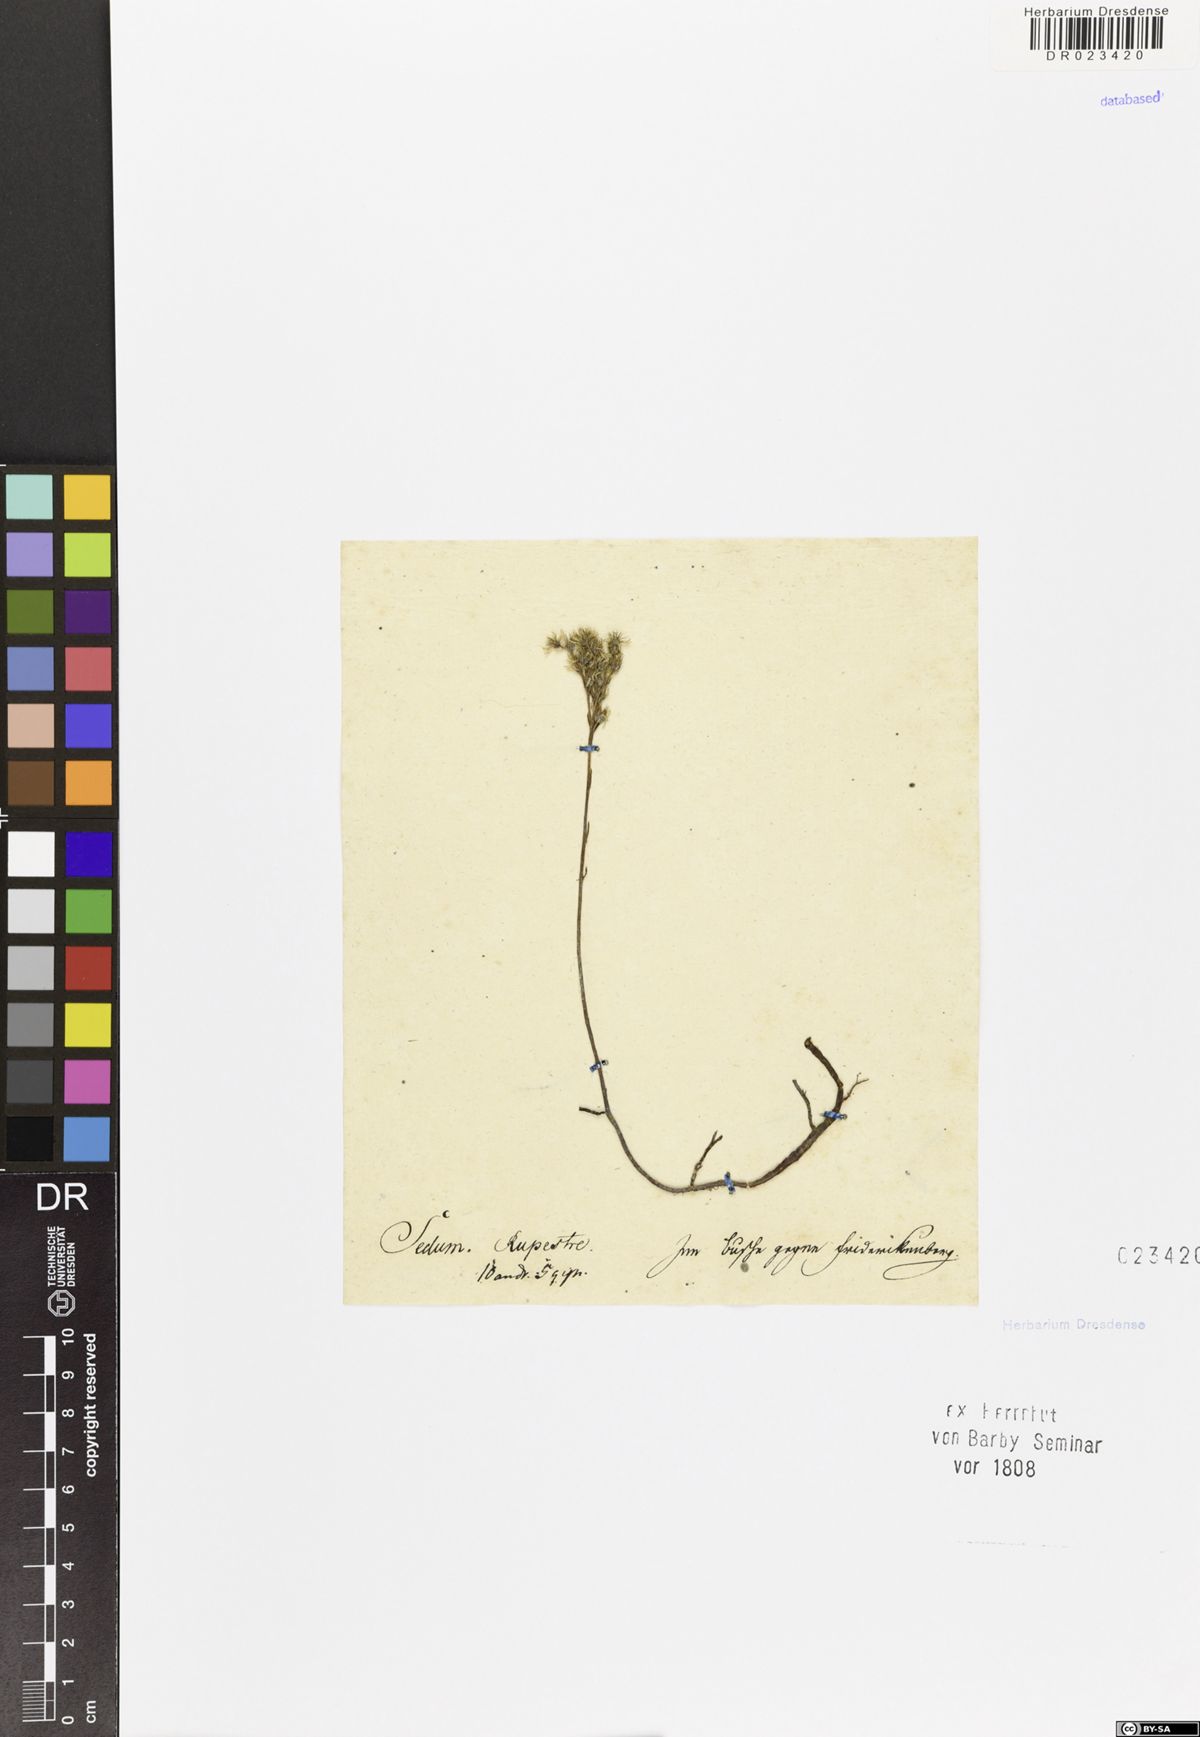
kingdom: Plantae
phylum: Tracheophyta
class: Magnoliopsida
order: Saxifragales
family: Crassulaceae
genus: Petrosedum
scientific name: Petrosedum rupestre
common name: Jenny's stonecrop
